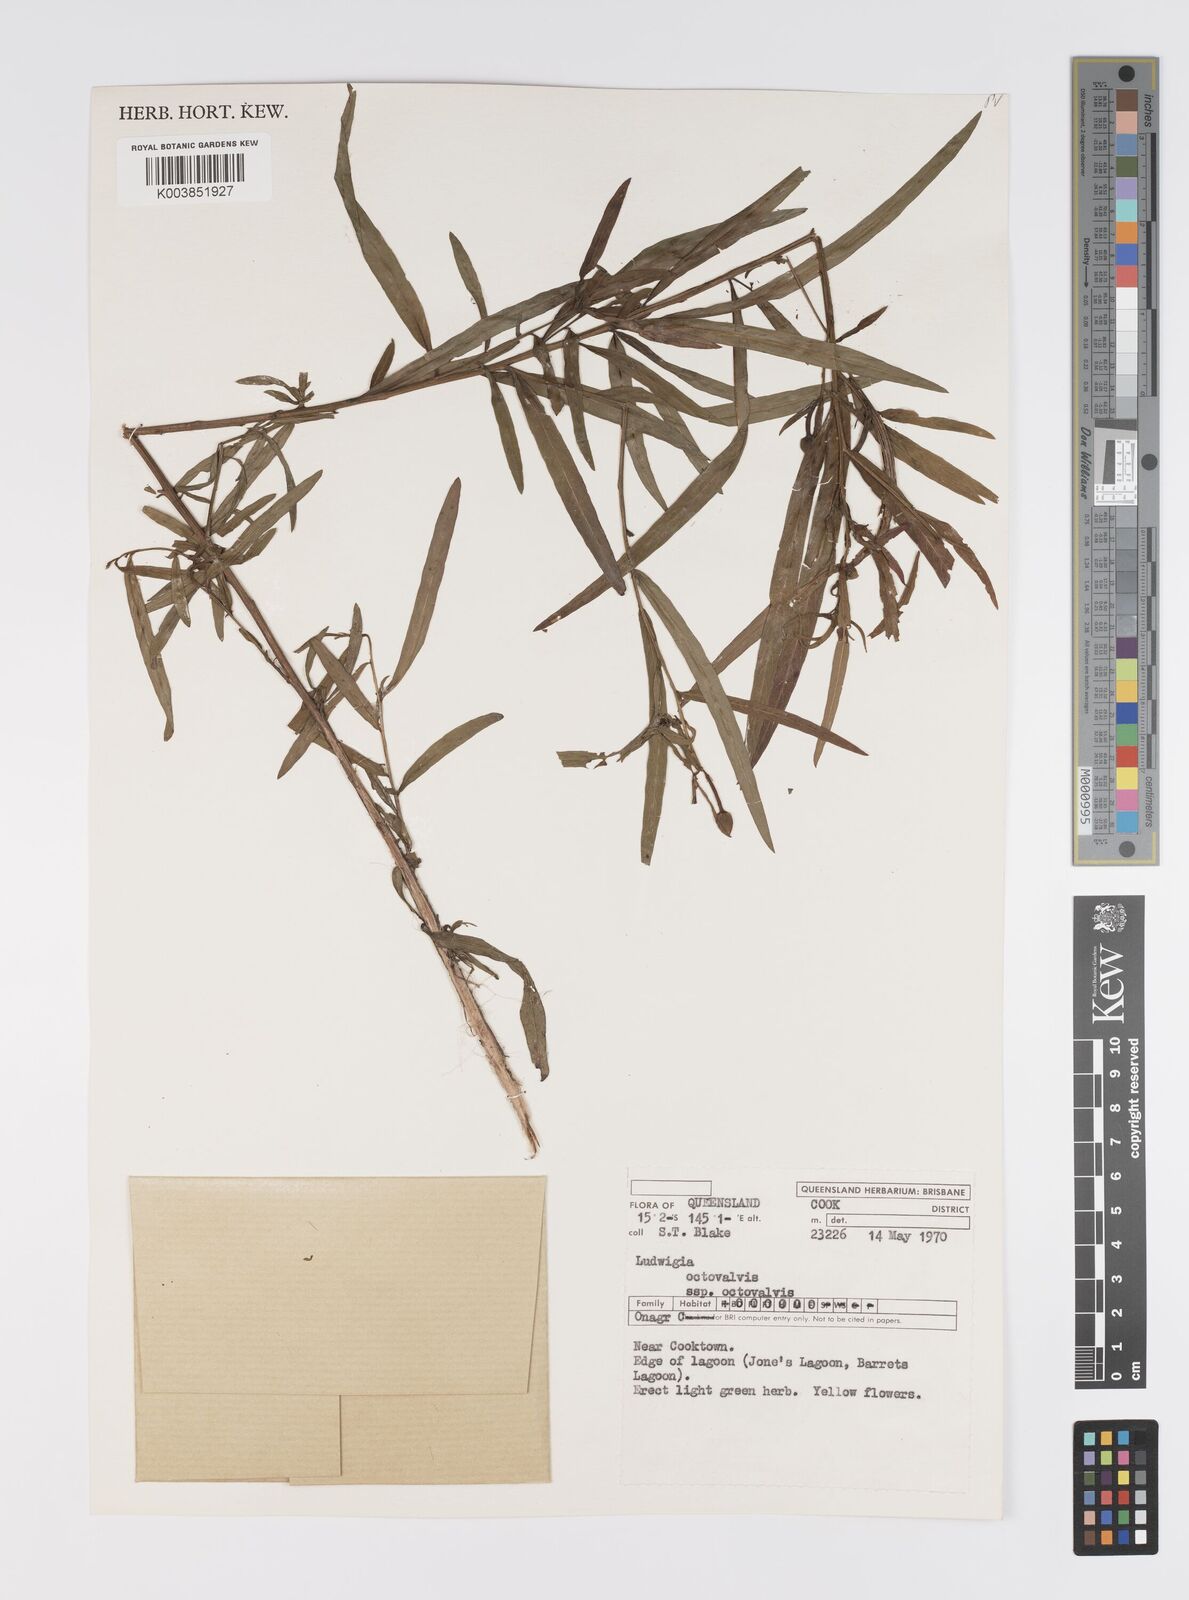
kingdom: Plantae
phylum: Tracheophyta
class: Magnoliopsida
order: Myrtales
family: Onagraceae
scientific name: Onagraceae
